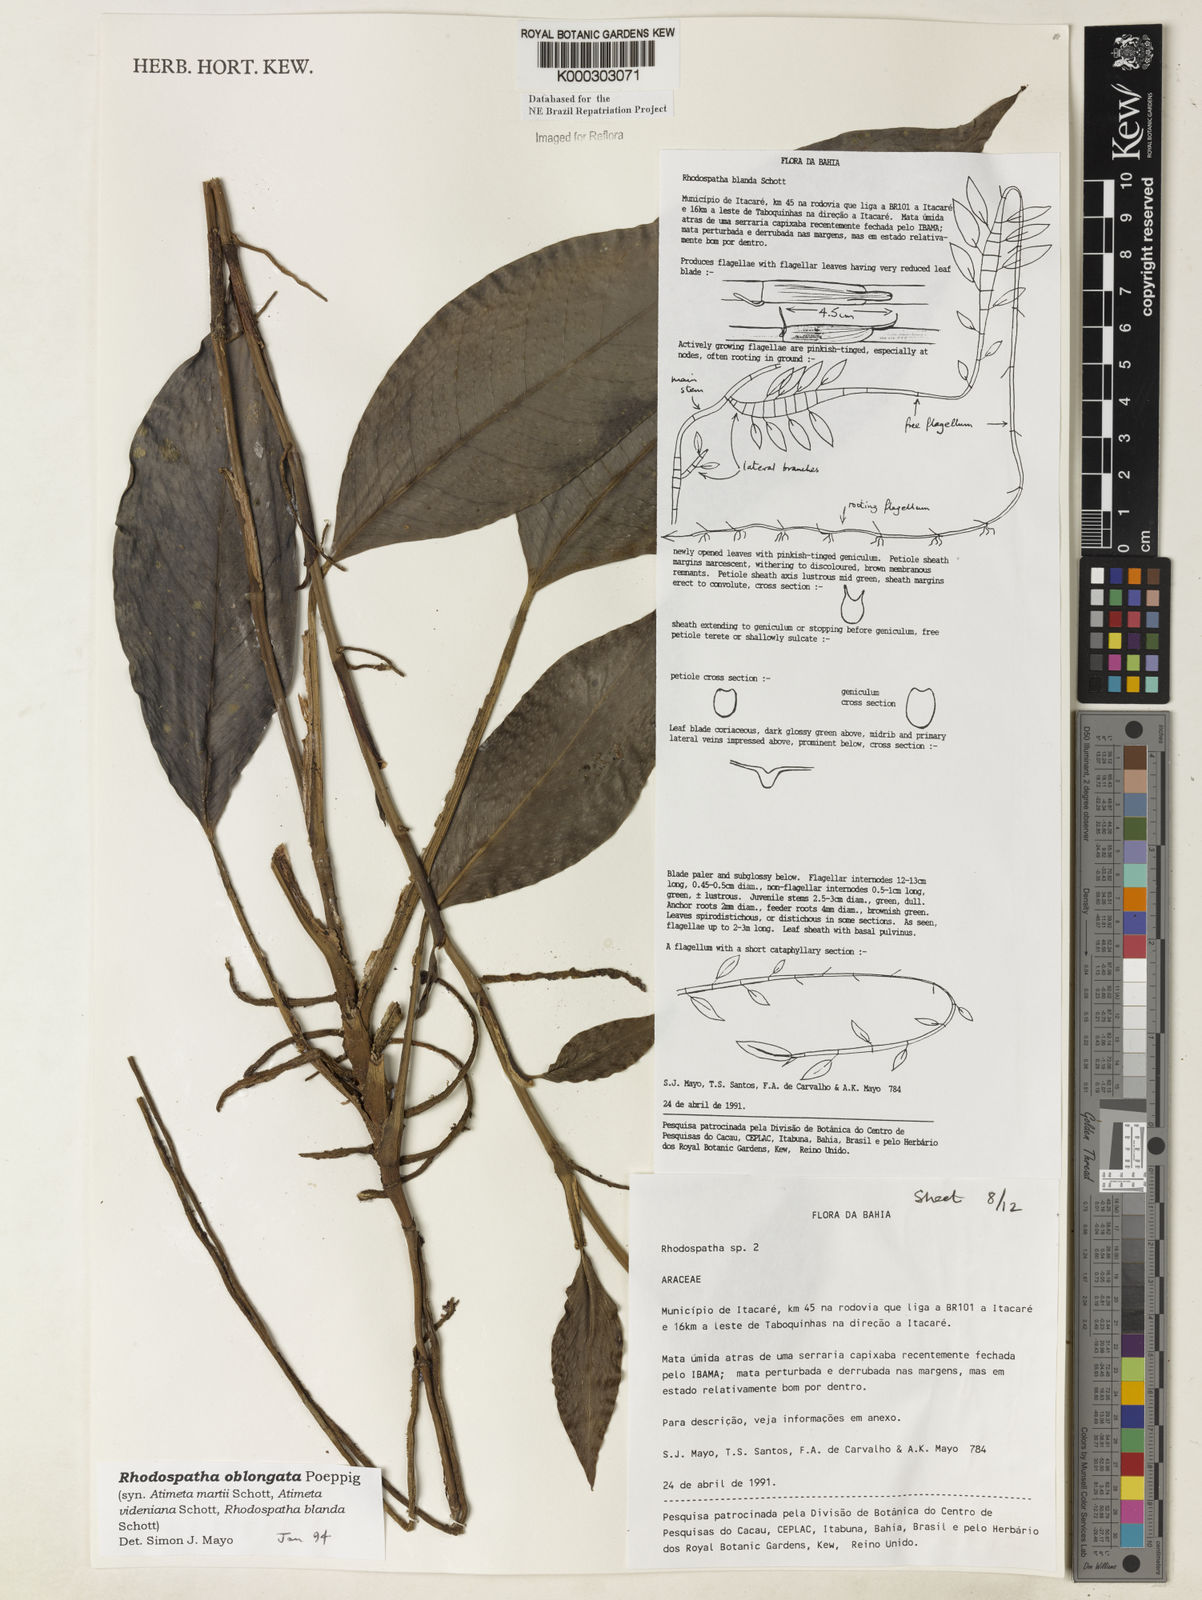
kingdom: Plantae
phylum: Tracheophyta
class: Liliopsida
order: Alismatales
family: Araceae
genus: Rhodospatha
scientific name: Rhodospatha oblongata
